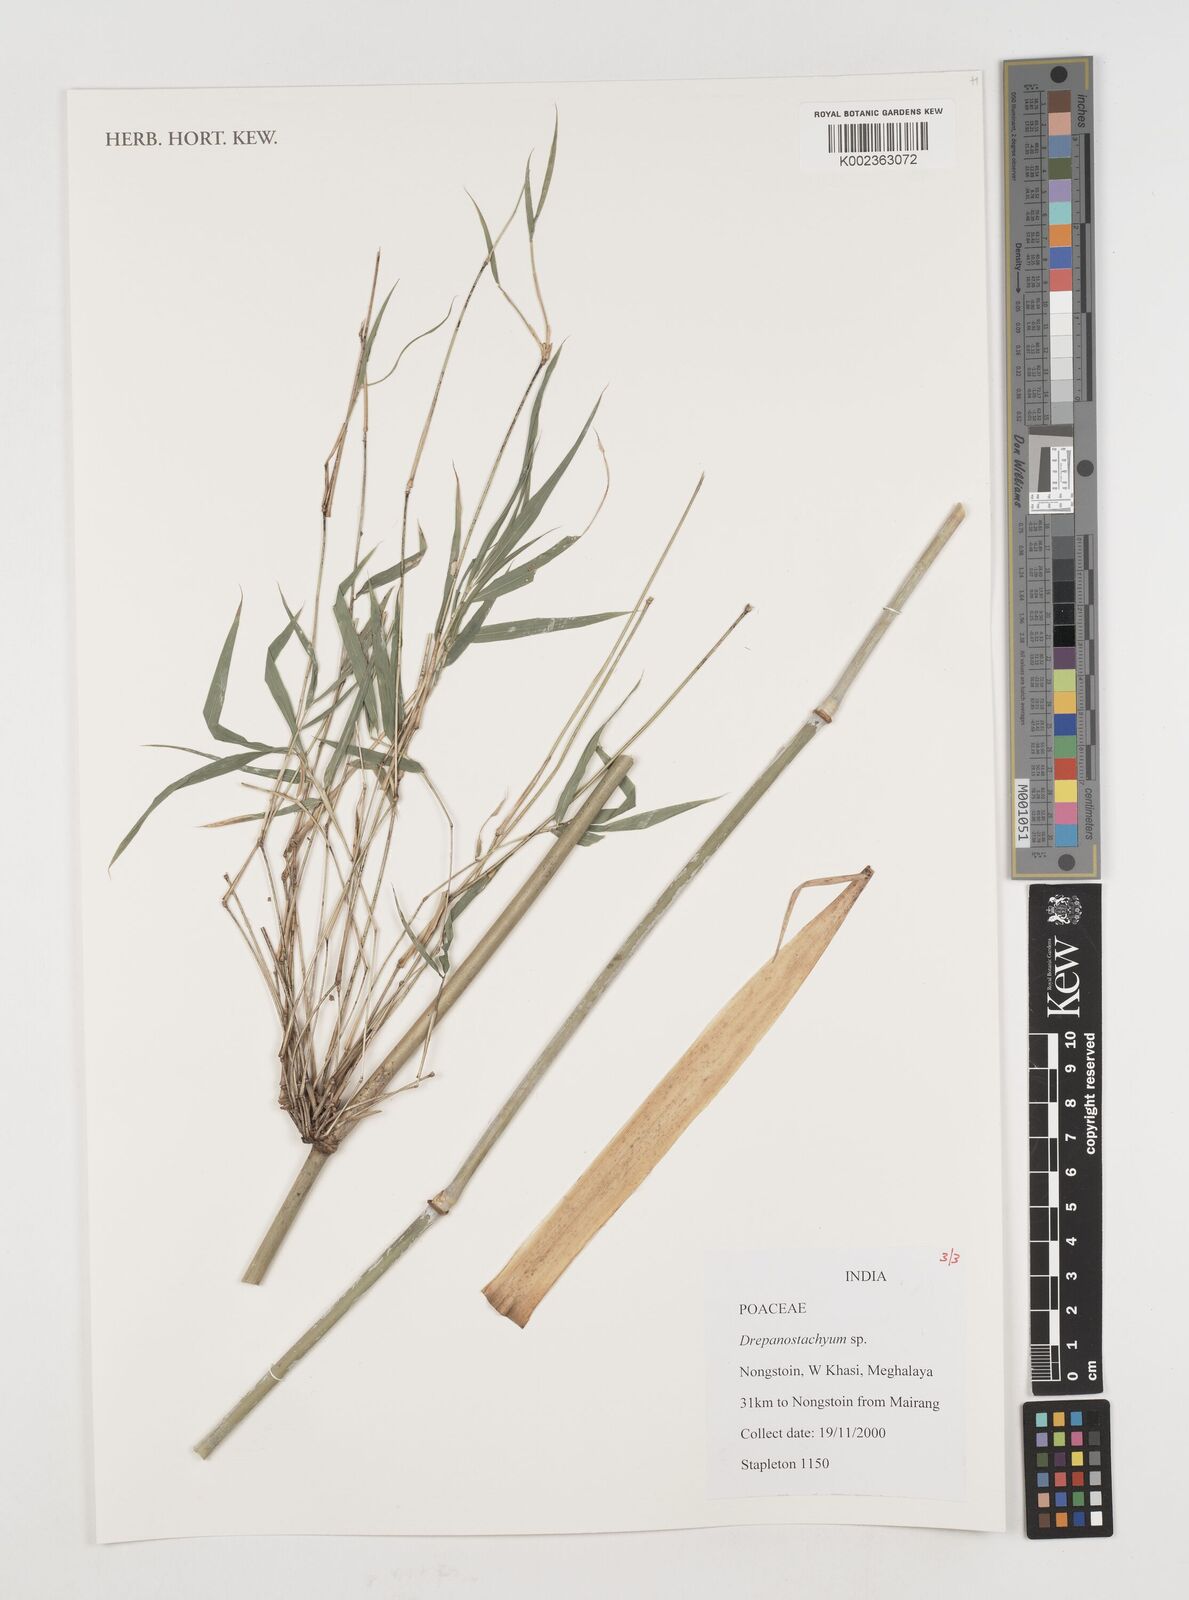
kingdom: Plantae
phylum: Tracheophyta
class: Liliopsida
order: Poales
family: Poaceae
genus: Drepanostachyum
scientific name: Drepanostachyum
